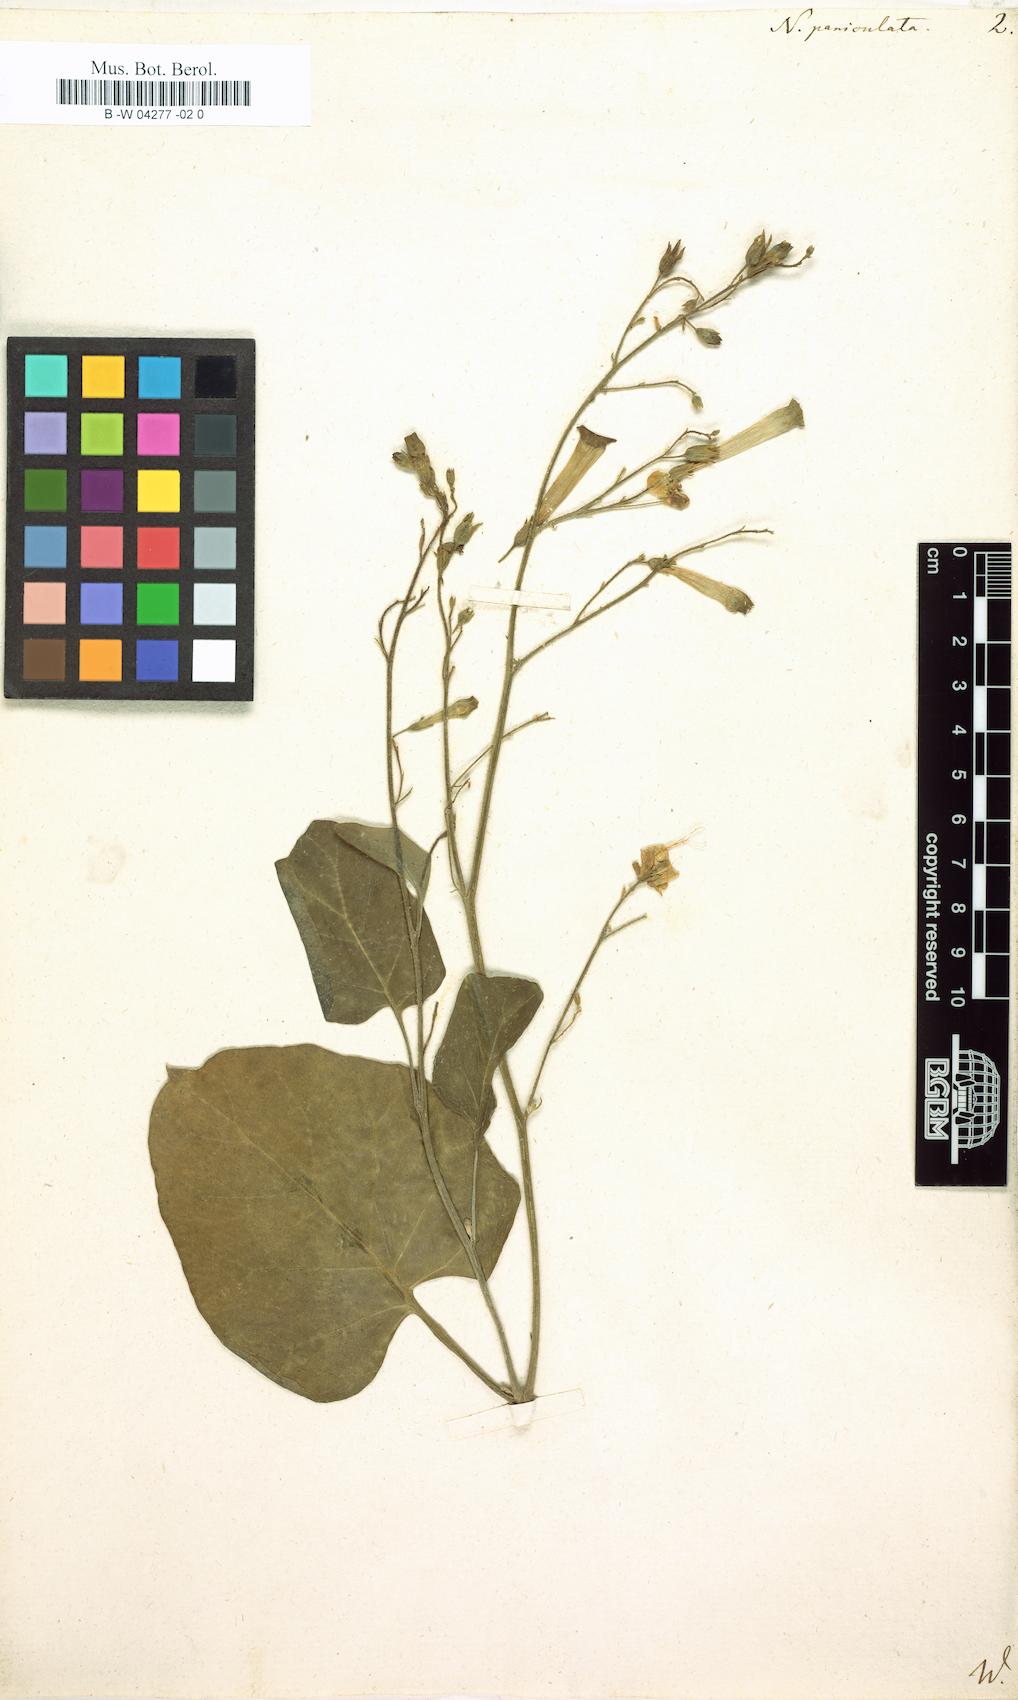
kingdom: Plantae
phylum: Tracheophyta
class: Magnoliopsida
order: Solanales
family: Solanaceae
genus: Nicotiana
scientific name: Nicotiana paniculata
